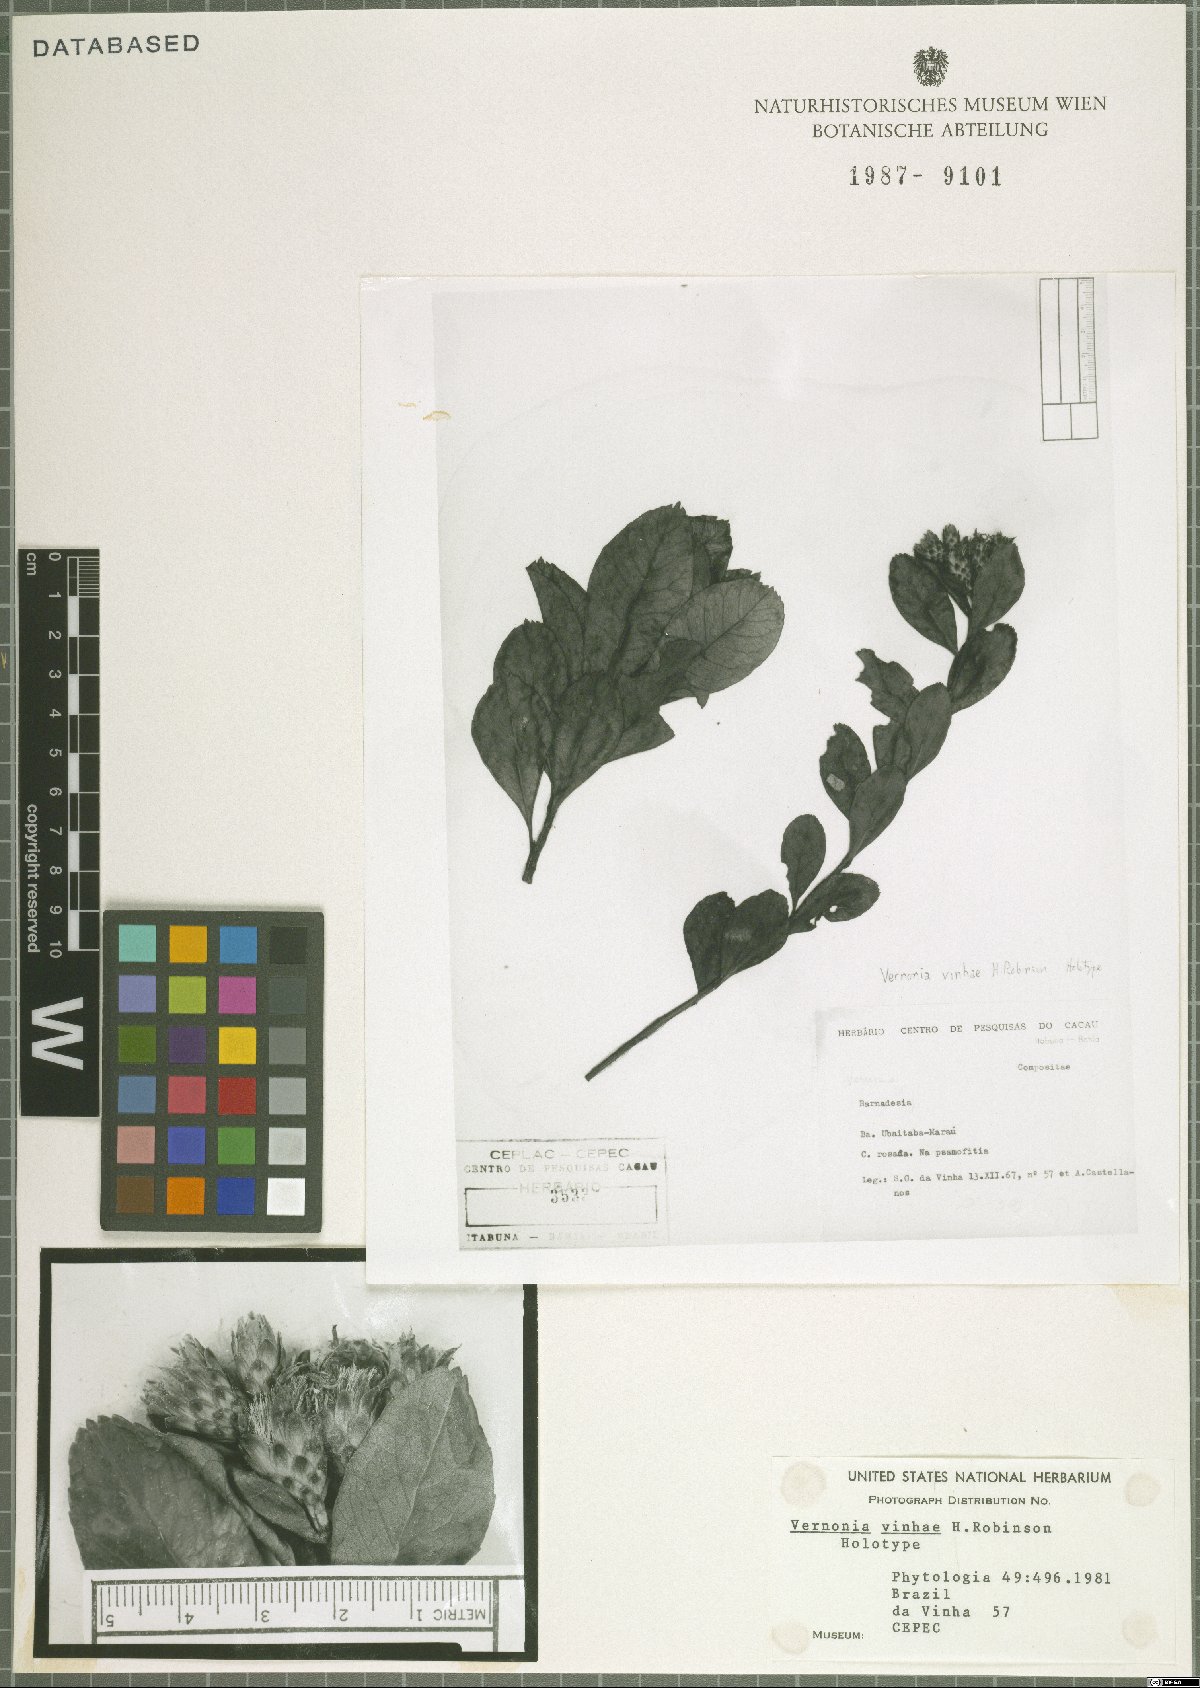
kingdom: Plantae
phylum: Tracheophyta
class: Magnoliopsida
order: Asterales
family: Asteraceae
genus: Vernonanthura
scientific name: Vernonanthura vinhae
